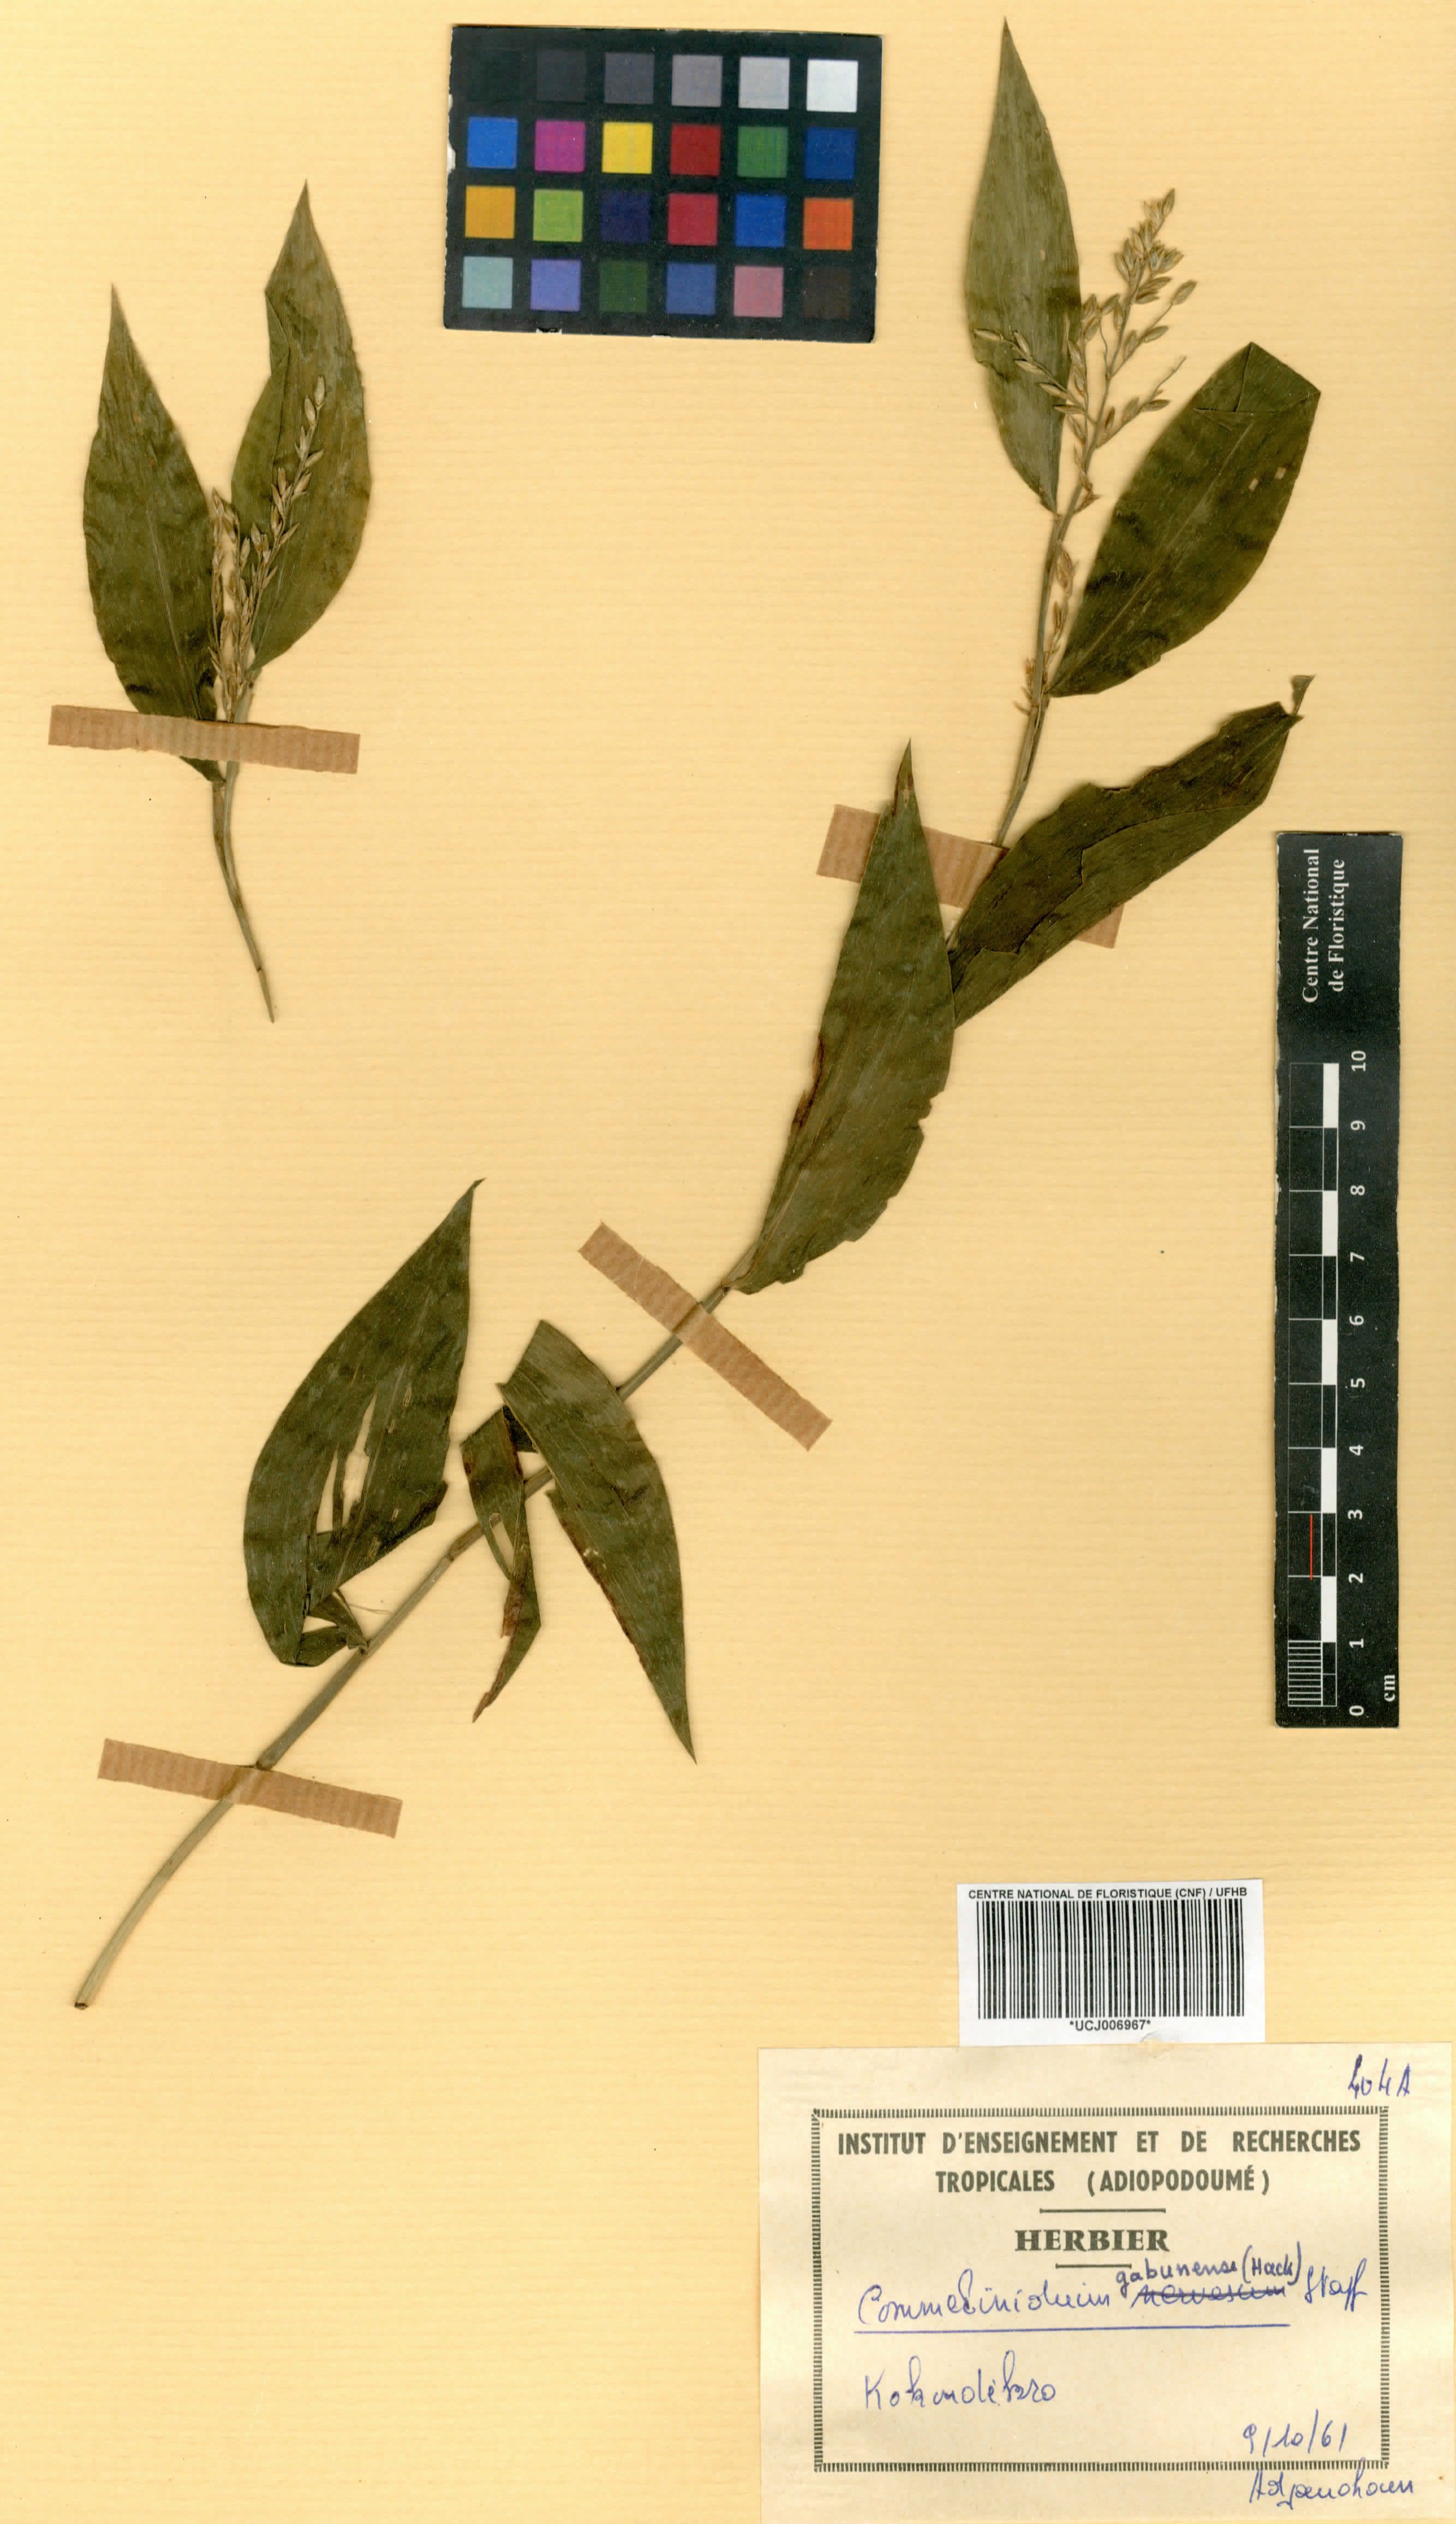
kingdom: Plantae
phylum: Tracheophyta
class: Liliopsida
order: Poales
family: Poaceae
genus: Acroceras
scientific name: Acroceras gabunense
